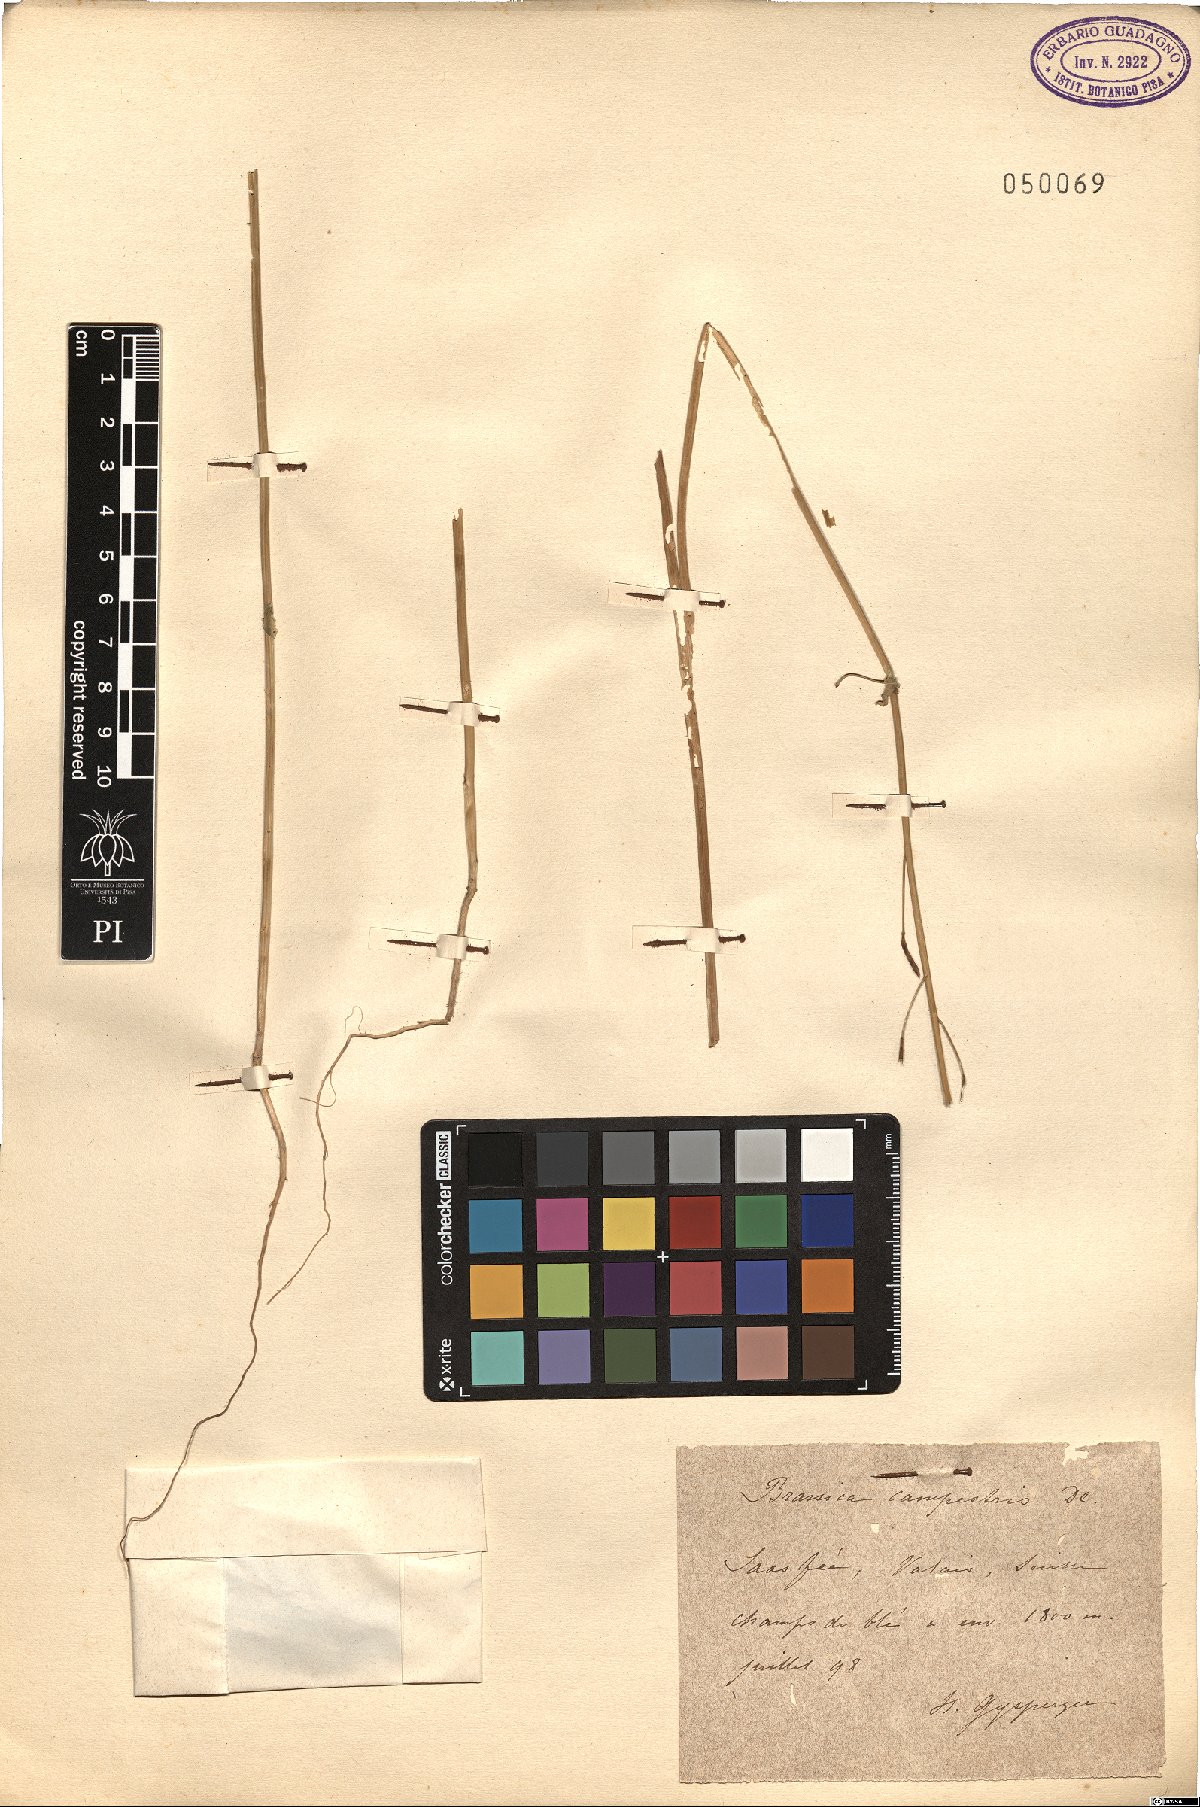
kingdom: Plantae
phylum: Tracheophyta
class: Magnoliopsida
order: Brassicales
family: Brassicaceae
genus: Brassica
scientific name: Brassica rapa
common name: Field mustard
